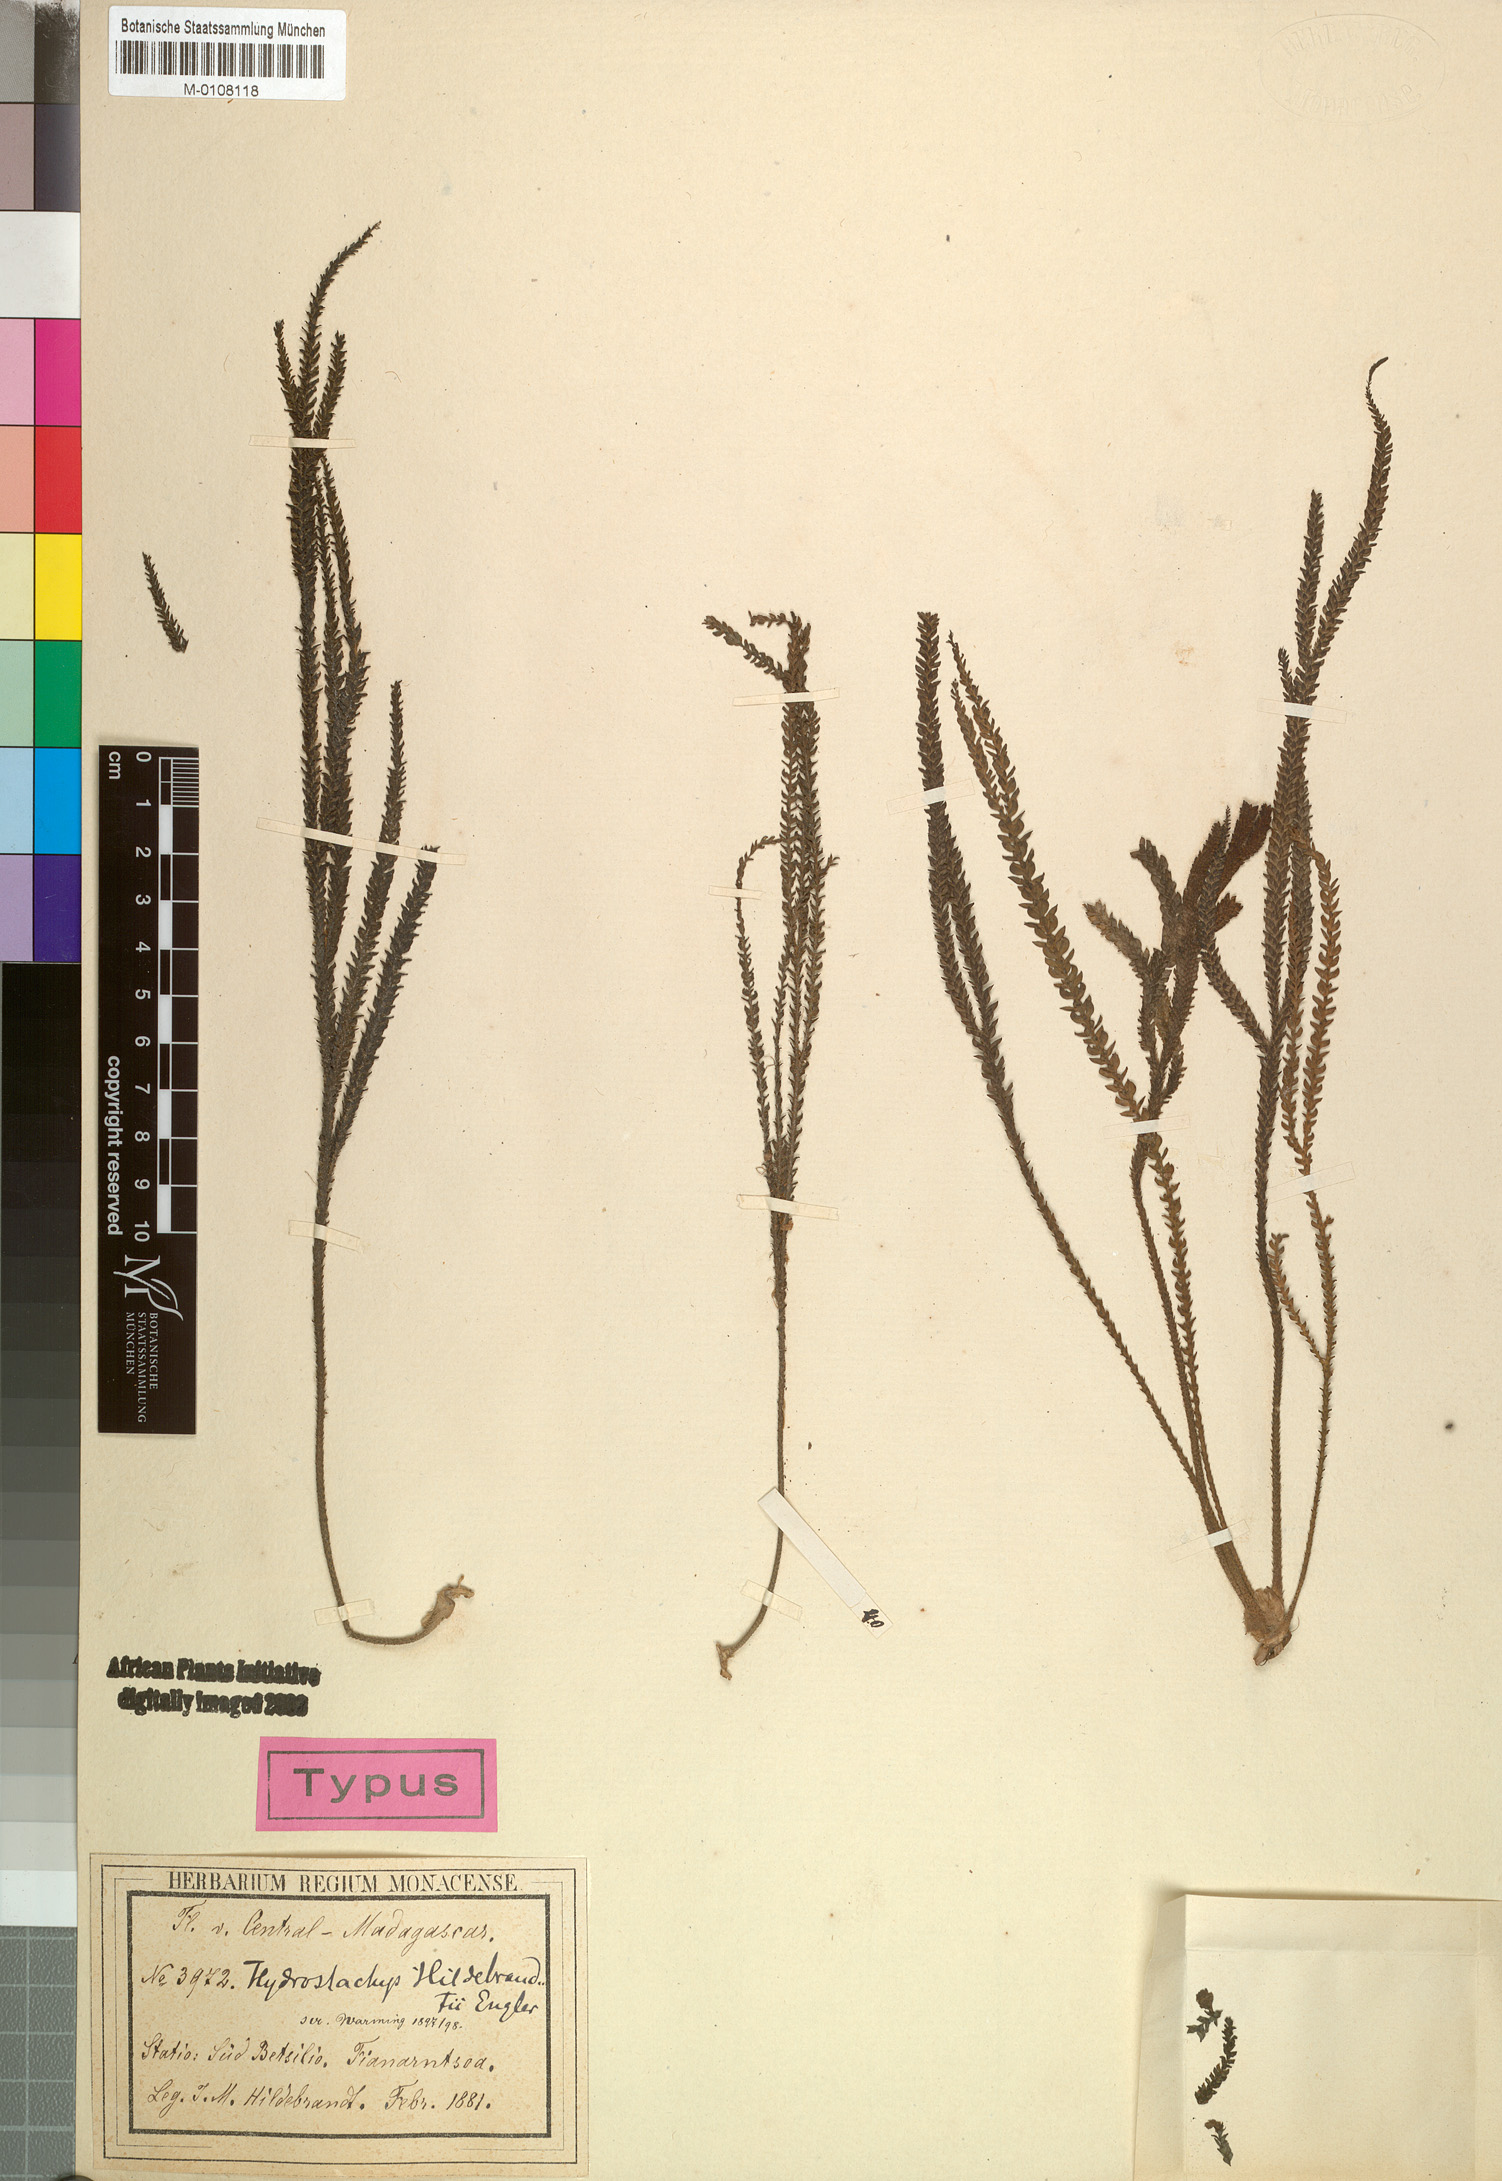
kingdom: Plantae
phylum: Tracheophyta
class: Magnoliopsida
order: Cornales
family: Hydrostachyaceae
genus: Hydrostachys
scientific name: Hydrostachys distichophylla
